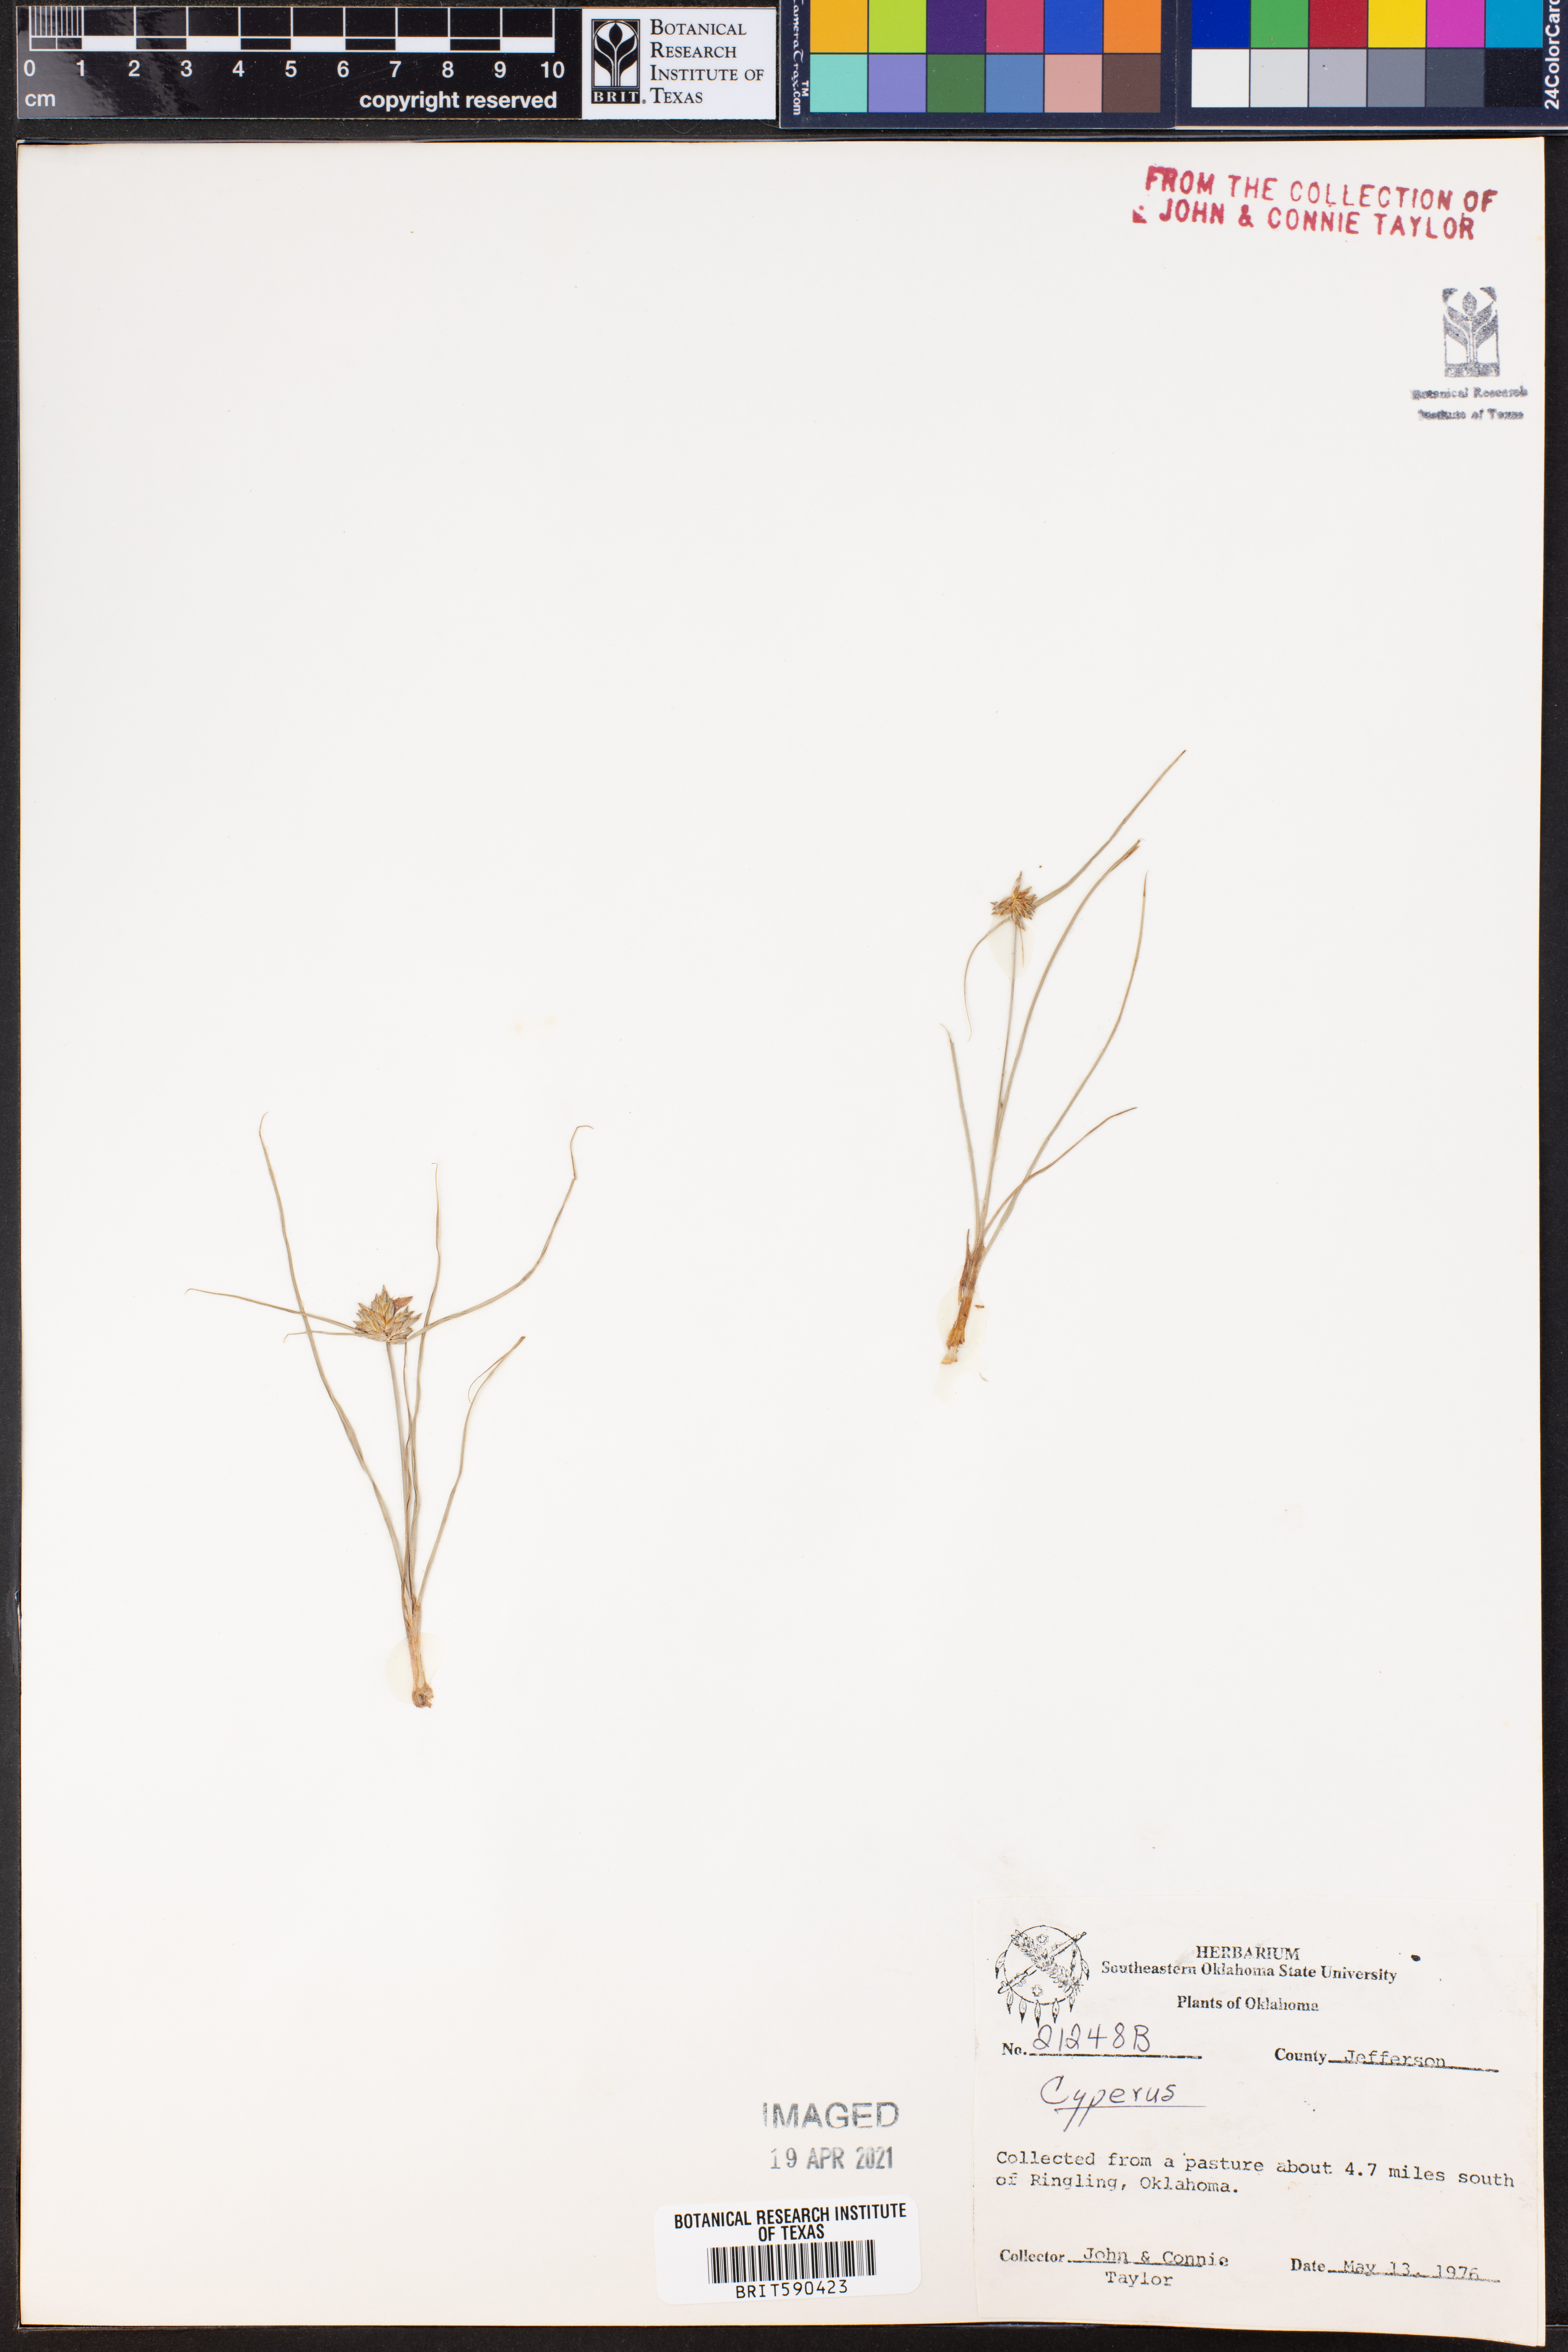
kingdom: Plantae
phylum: Tracheophyta
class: Liliopsida
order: Poales
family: Cyperaceae
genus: Cyperus
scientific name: Cyperus
